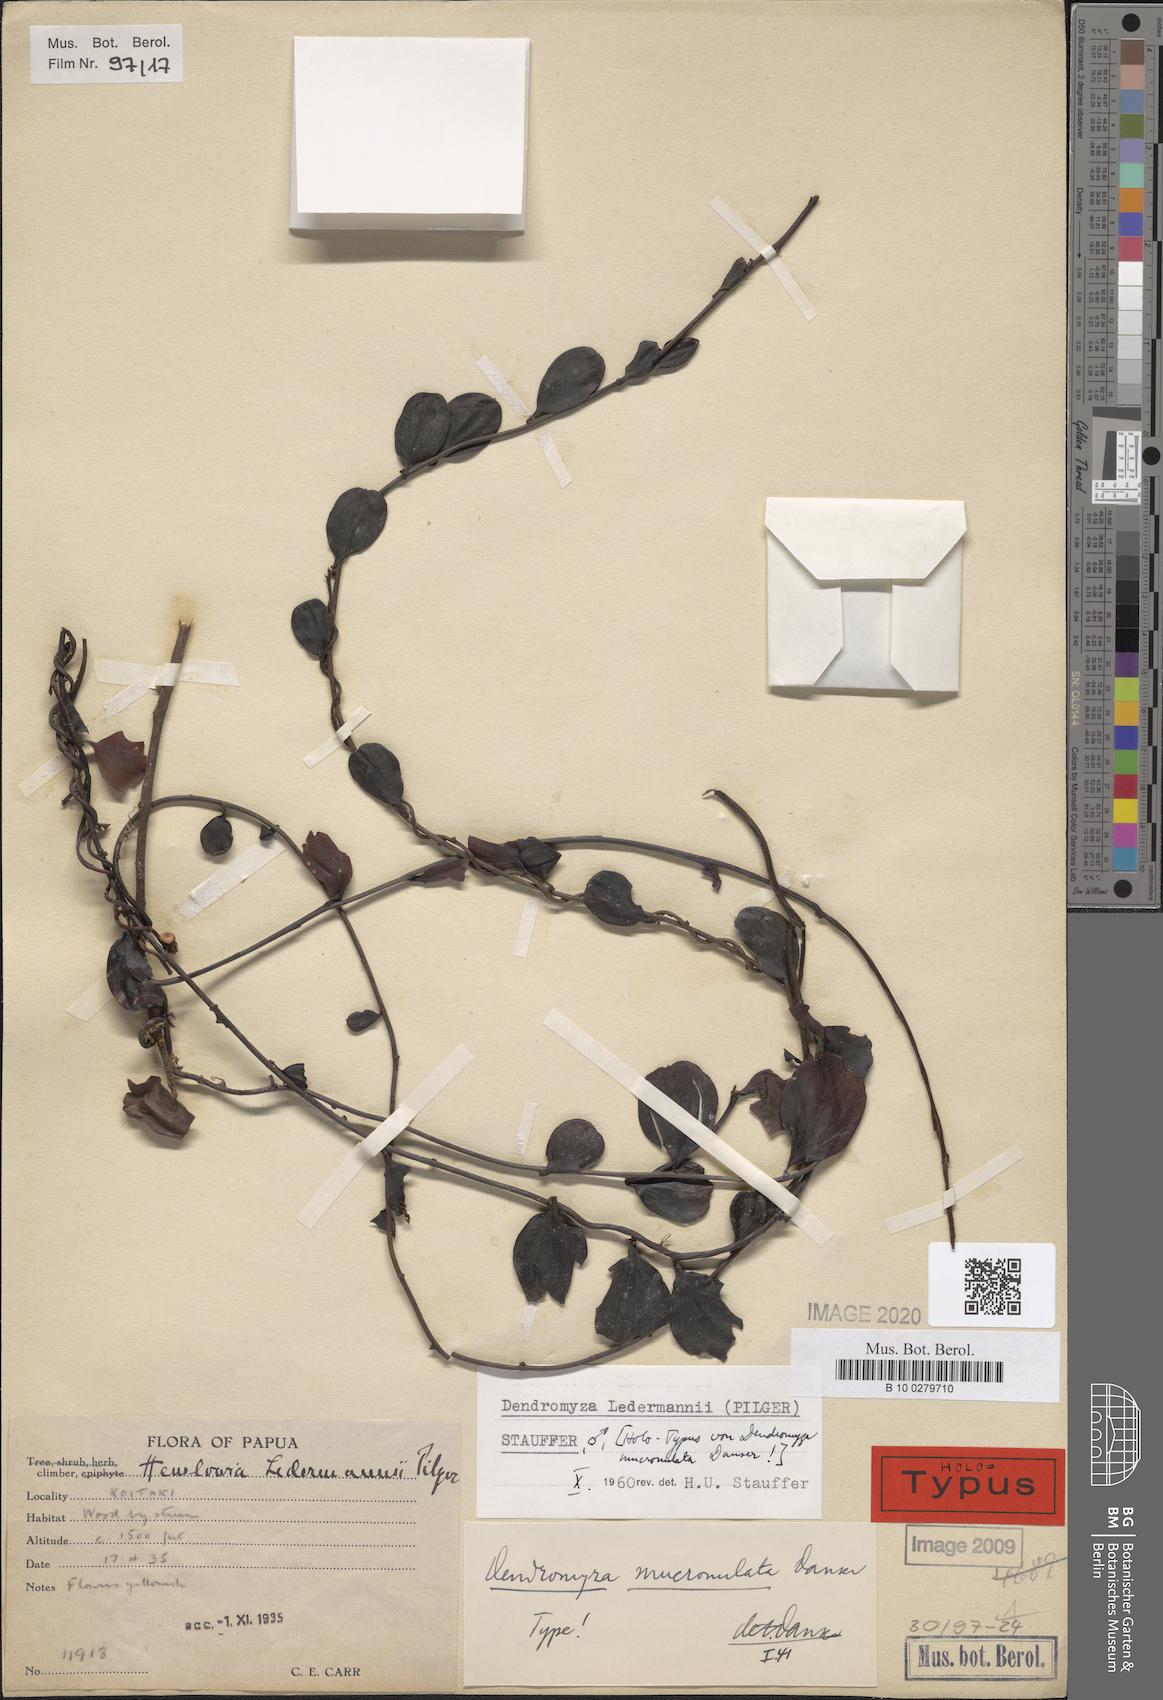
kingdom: Plantae
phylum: Tracheophyta
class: Magnoliopsida
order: Santalales
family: Amphorogynaceae
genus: Dendromyza
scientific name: Dendromyza ledermannii
